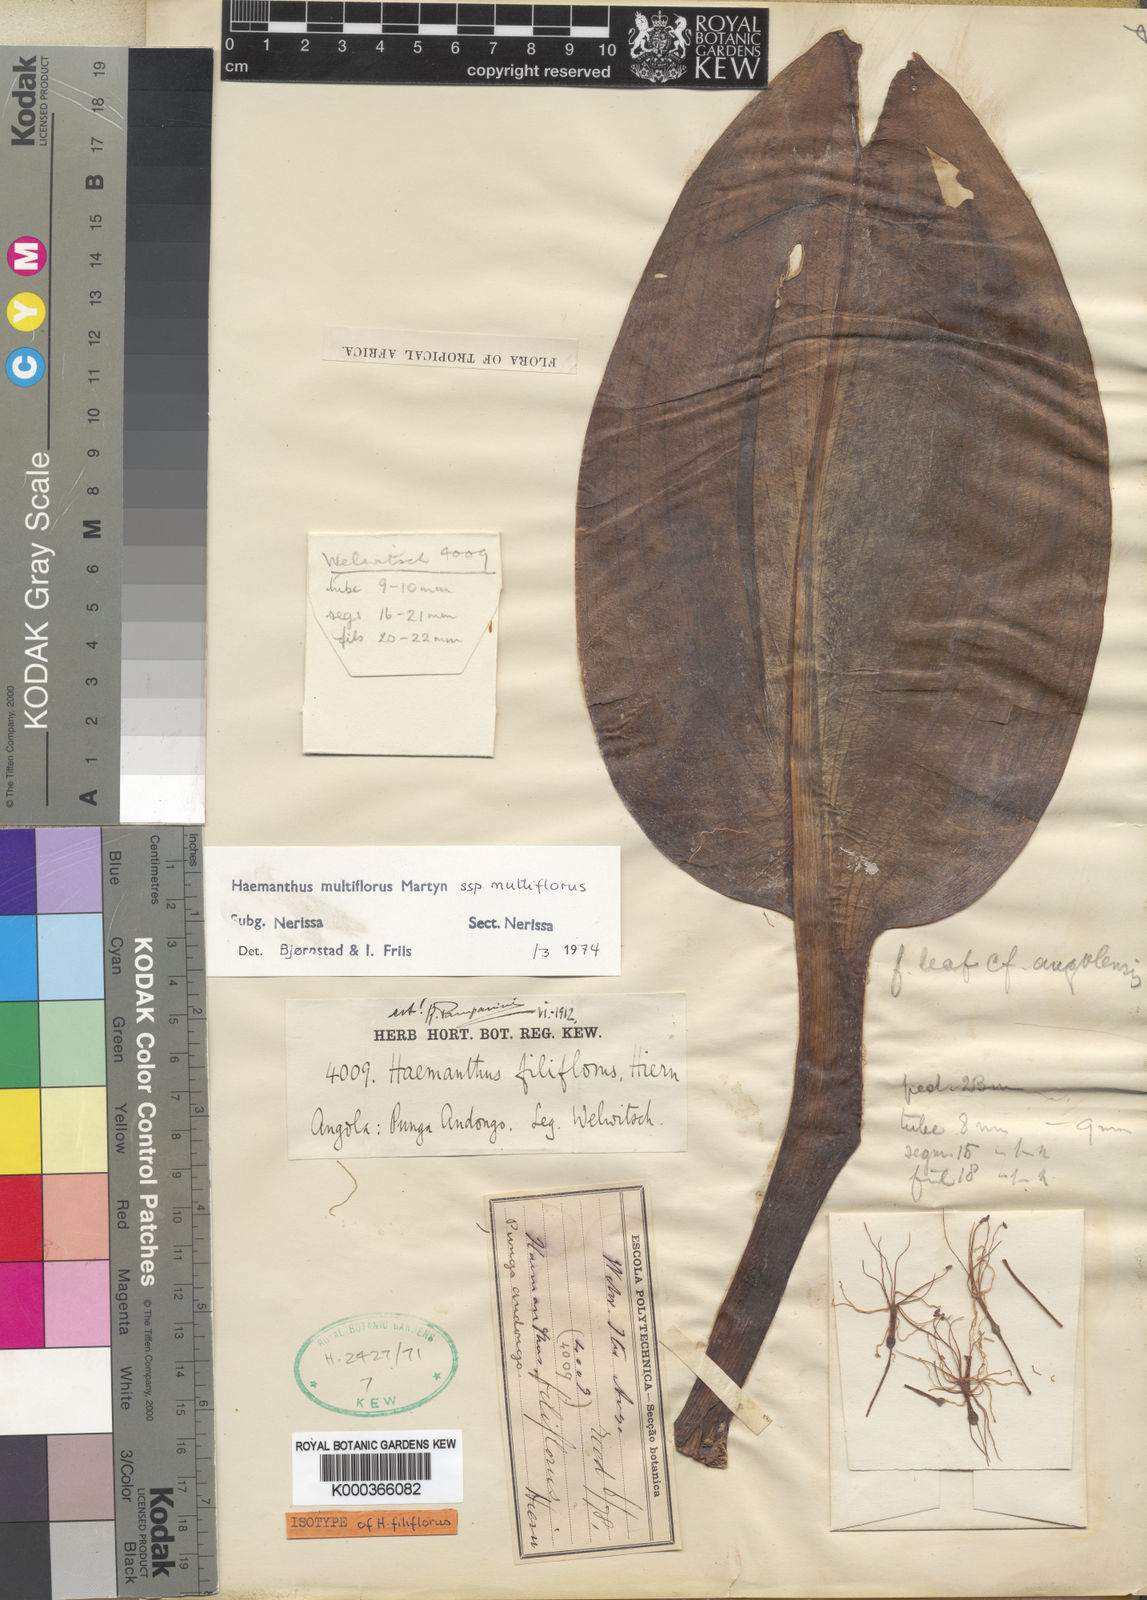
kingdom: Plantae
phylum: Tracheophyta
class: Liliopsida
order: Asparagales
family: Amaryllidaceae
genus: Scadoxus
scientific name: Scadoxus multiflorus
